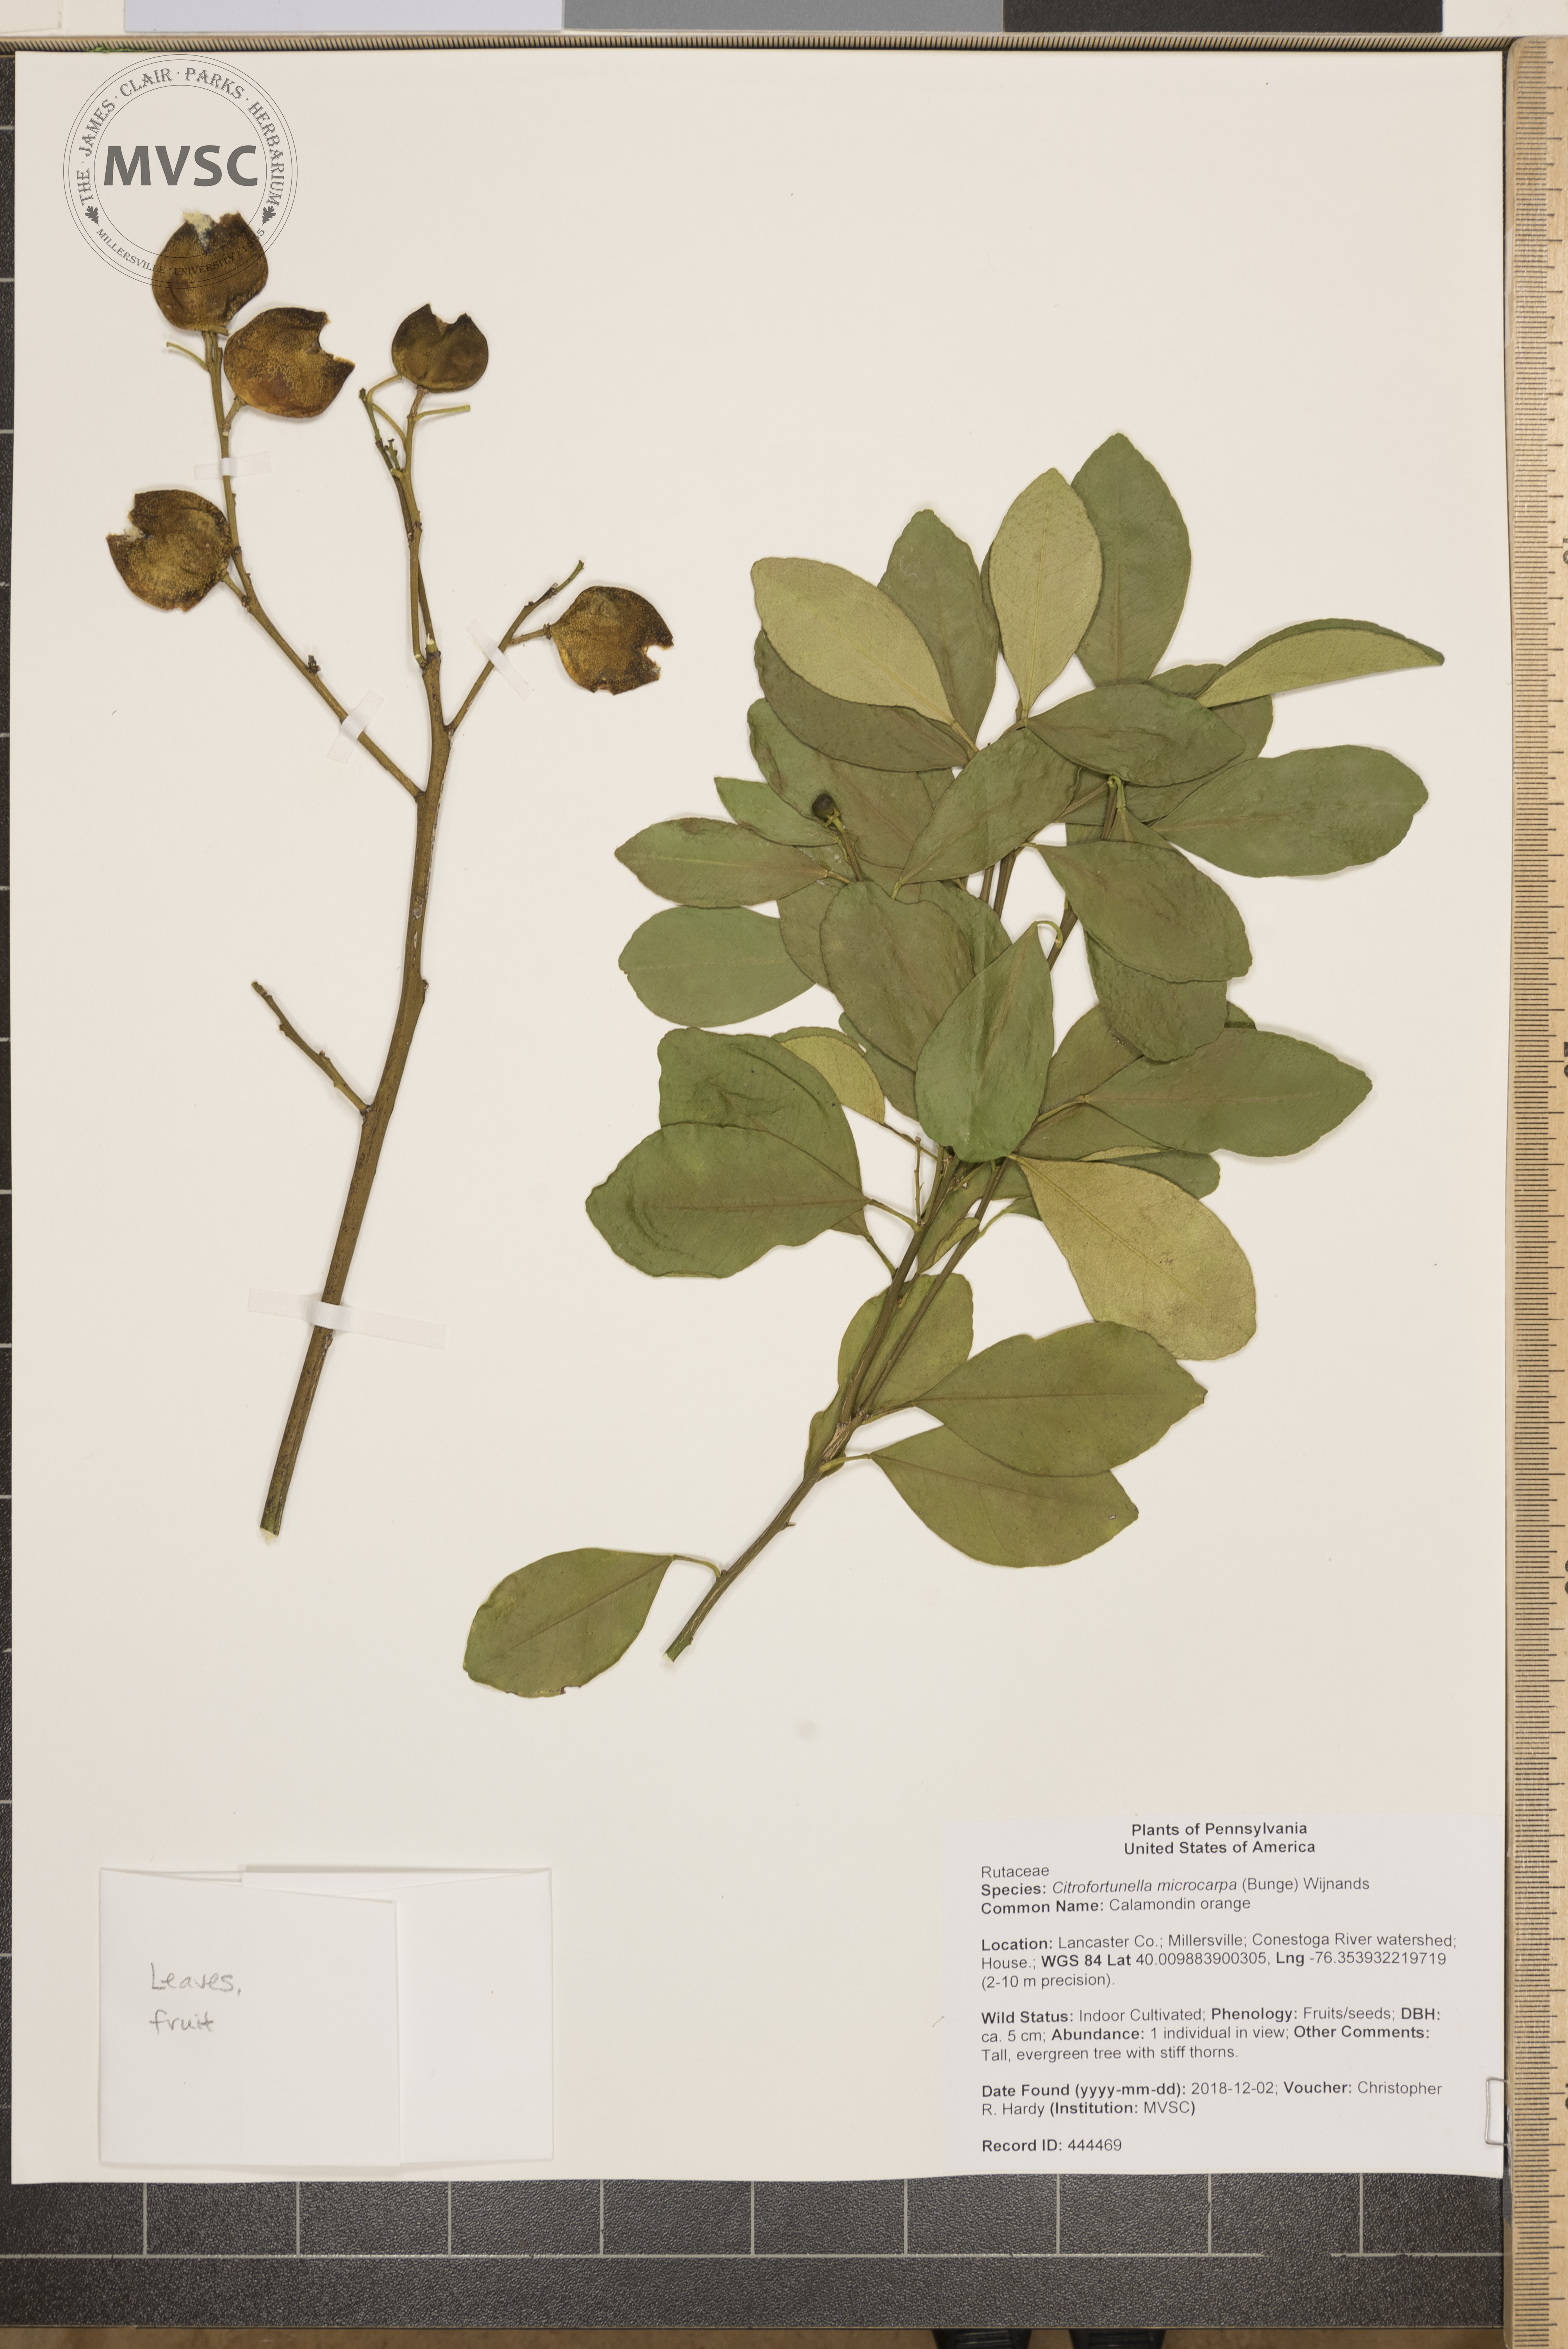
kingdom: Plantae
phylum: Tracheophyta
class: Magnoliopsida
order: Sapindales
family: Rutaceae
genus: Citrus
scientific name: Citrus microcarpa
